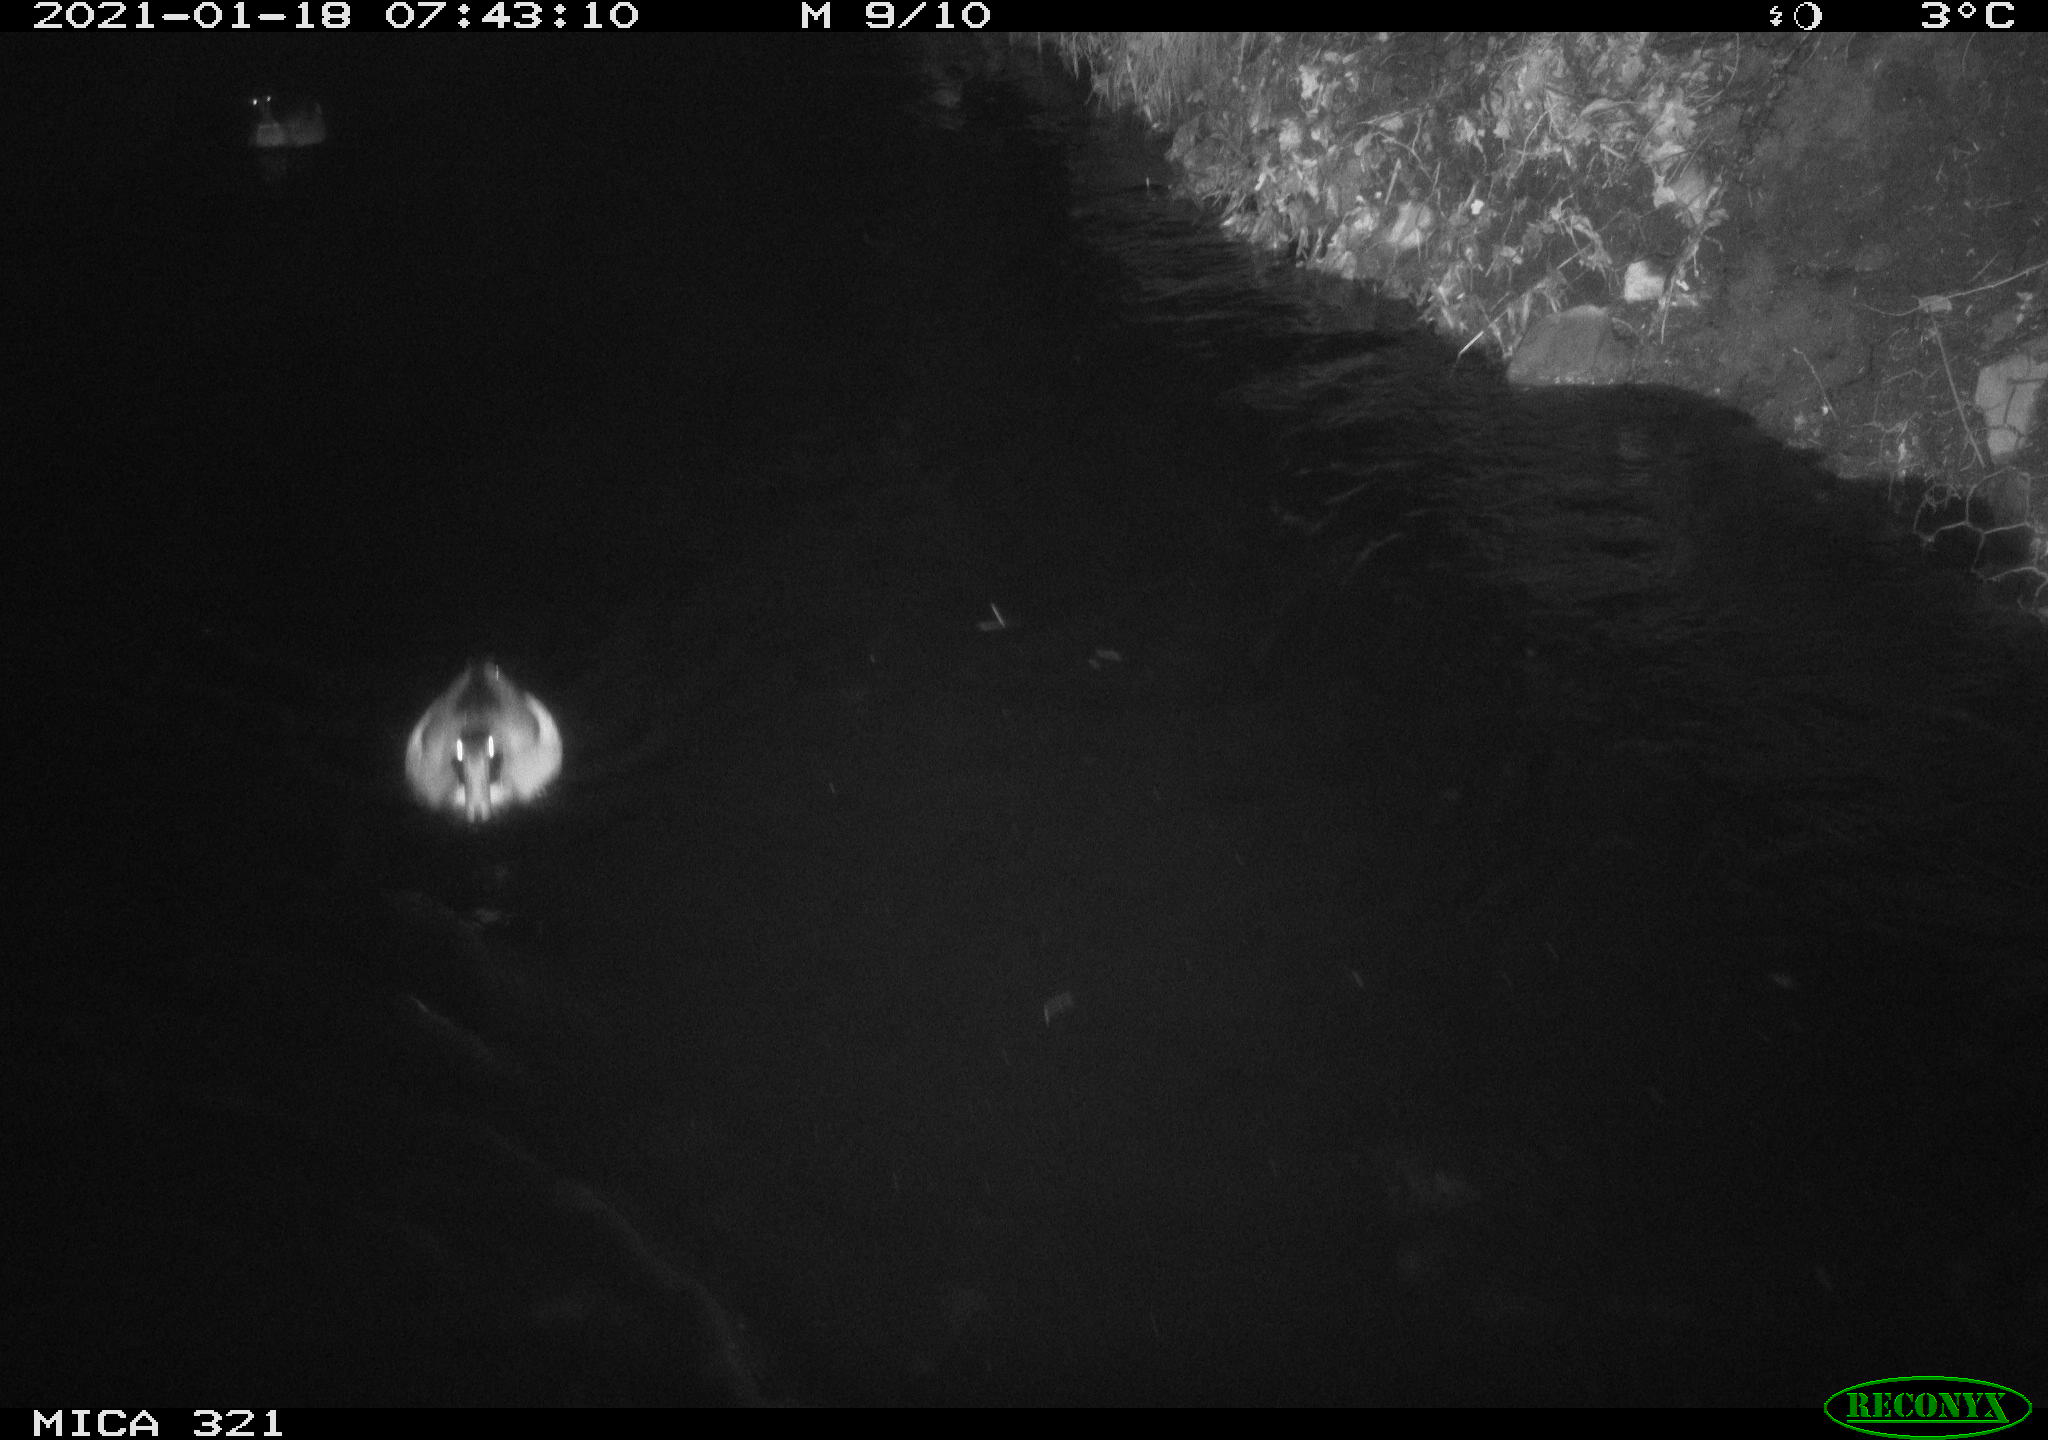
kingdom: Animalia
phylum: Chordata
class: Aves
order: Anseriformes
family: Anatidae
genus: Anas
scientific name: Anas platyrhynchos
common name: Mallard
